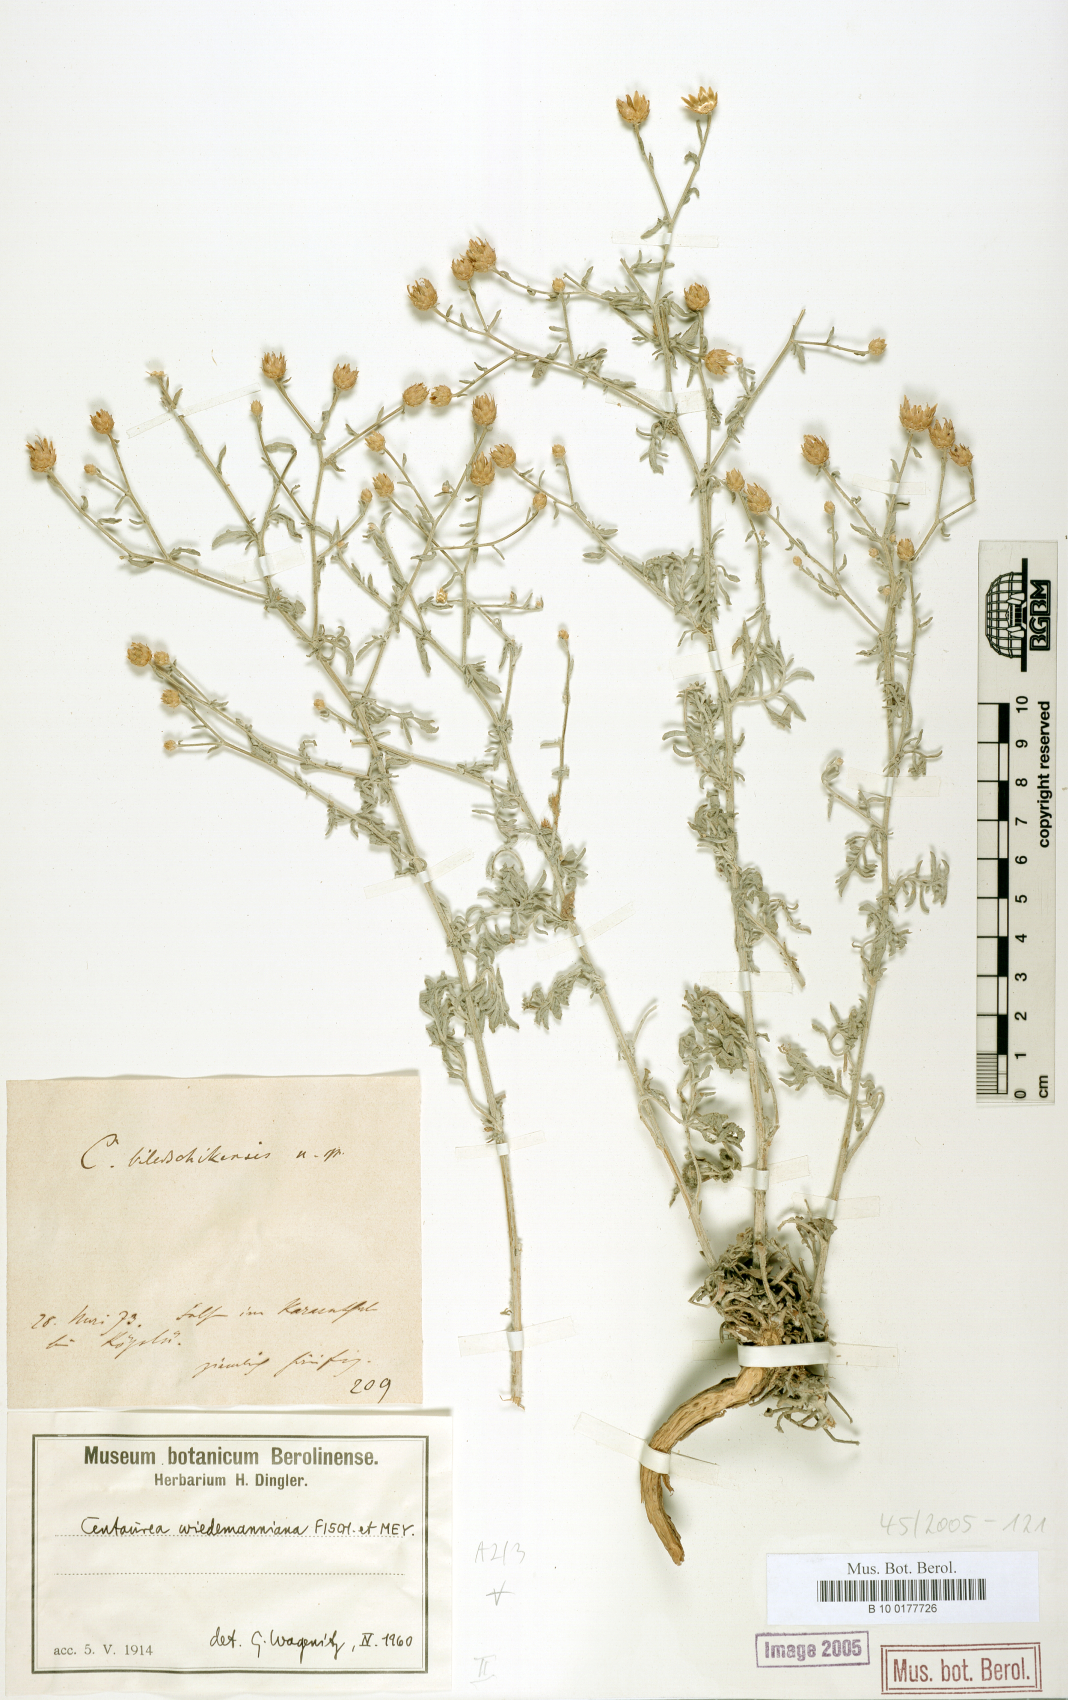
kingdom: Plantae
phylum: Tracheophyta
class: Magnoliopsida
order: Asterales
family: Asteraceae
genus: Centaurea
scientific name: Centaurea wiedemanniana
